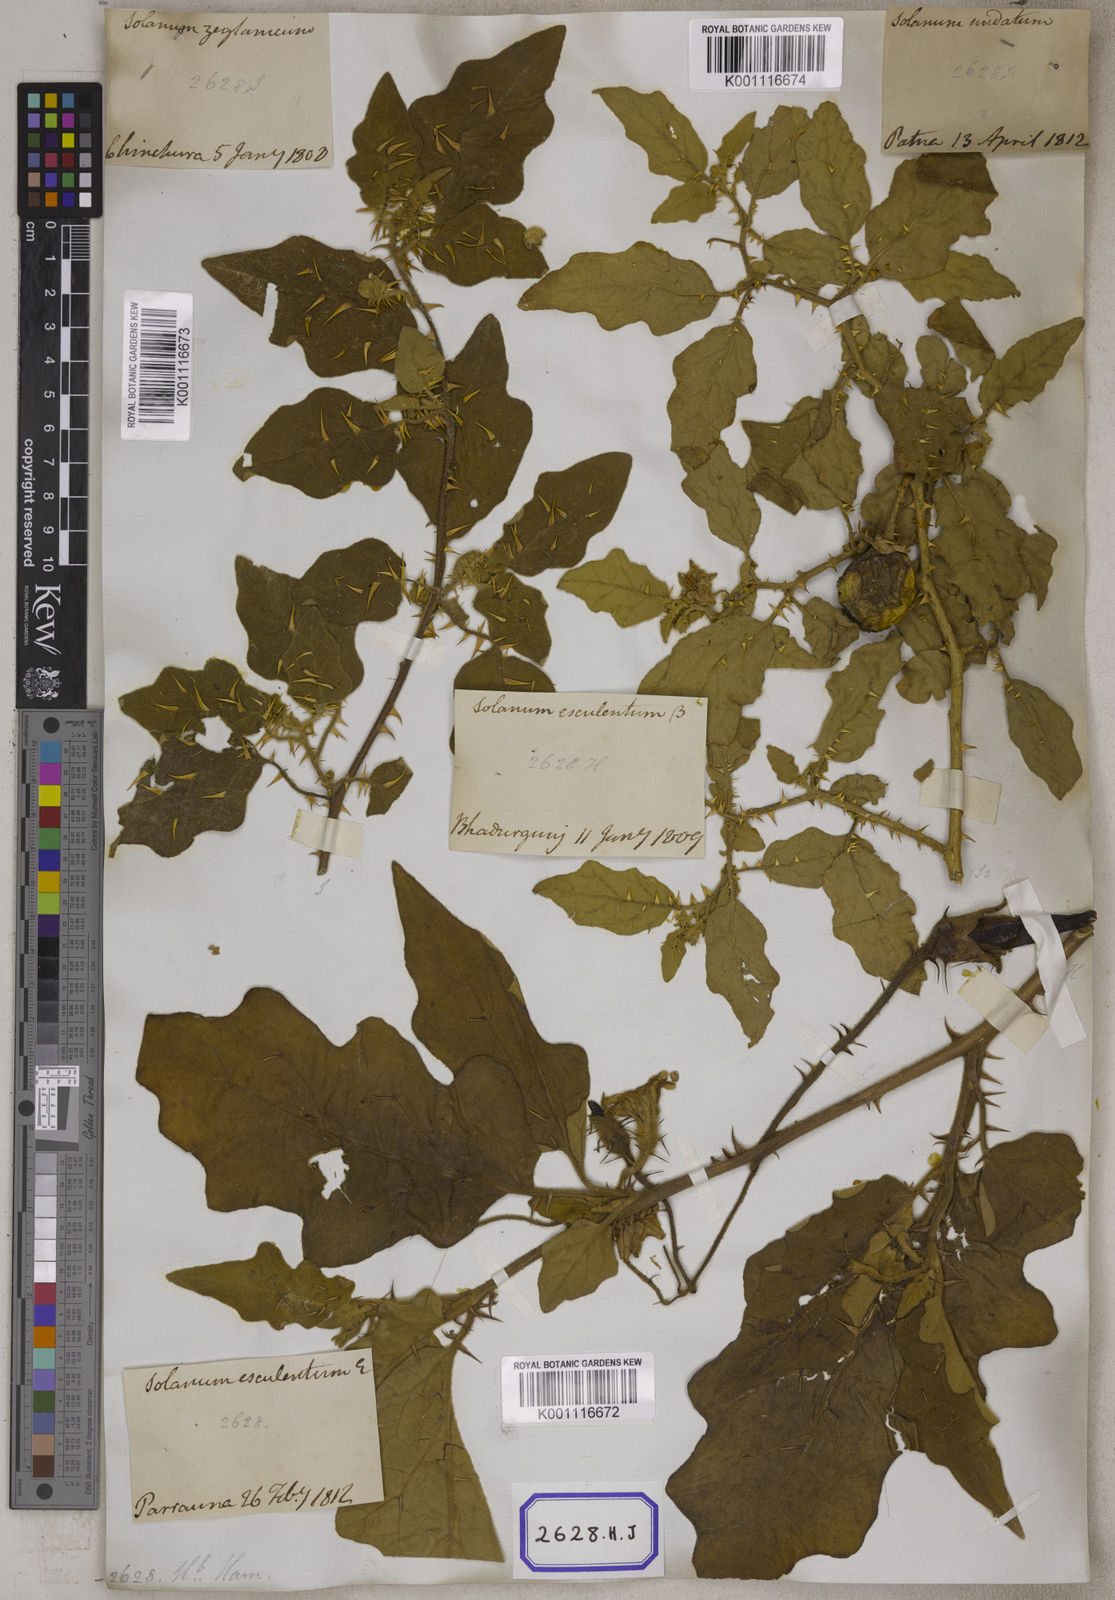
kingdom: Plantae
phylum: Tracheophyta
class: Magnoliopsida
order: Solanales
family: Solanaceae
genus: Solanum
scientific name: Solanum melongena
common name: Eggplant
